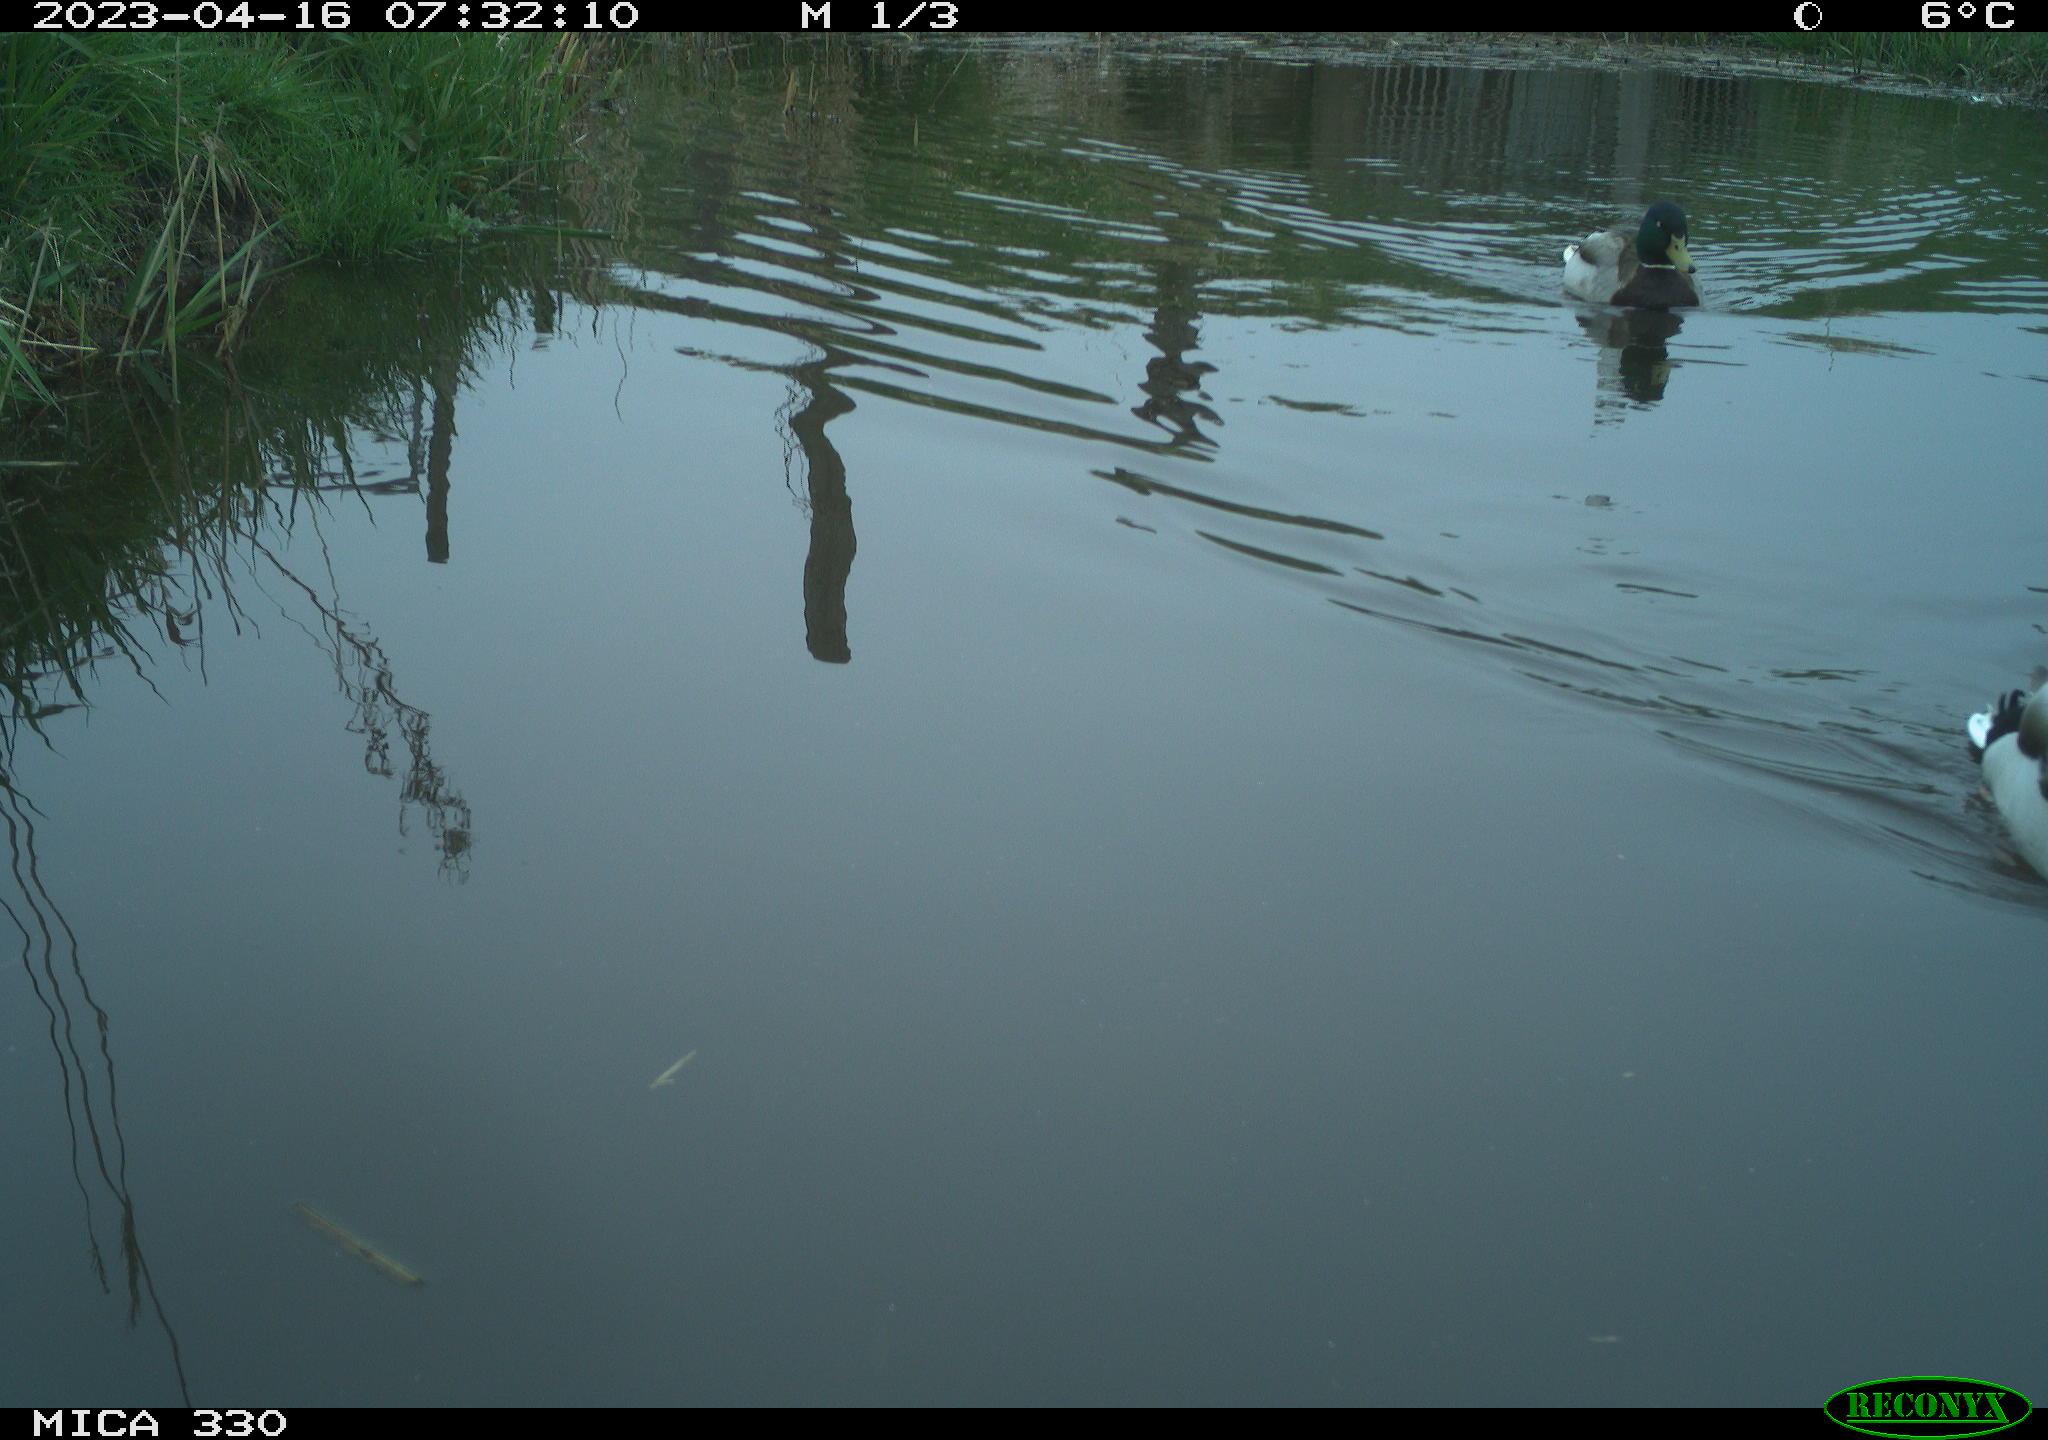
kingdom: Animalia
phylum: Chordata
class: Aves
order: Anseriformes
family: Anatidae
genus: Anas
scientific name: Anas
